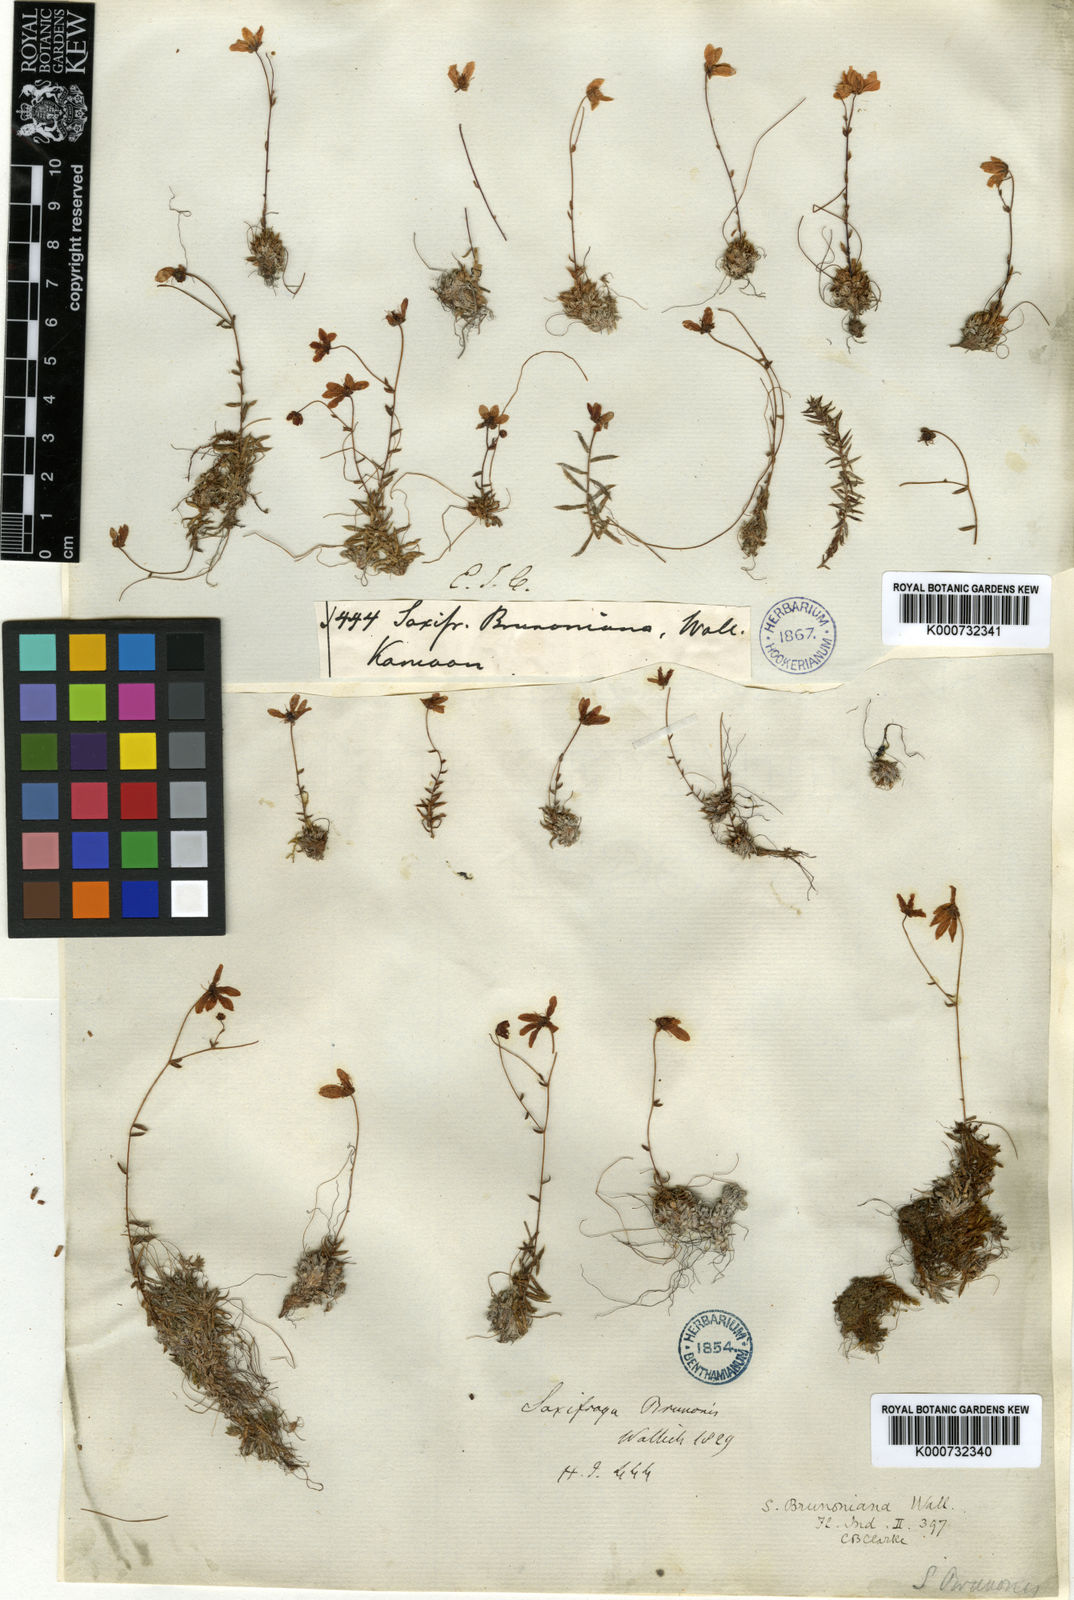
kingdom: Plantae
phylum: Tracheophyta
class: Magnoliopsida
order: Saxifragales
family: Saxifragaceae
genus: Saxifraga
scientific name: Saxifraga
